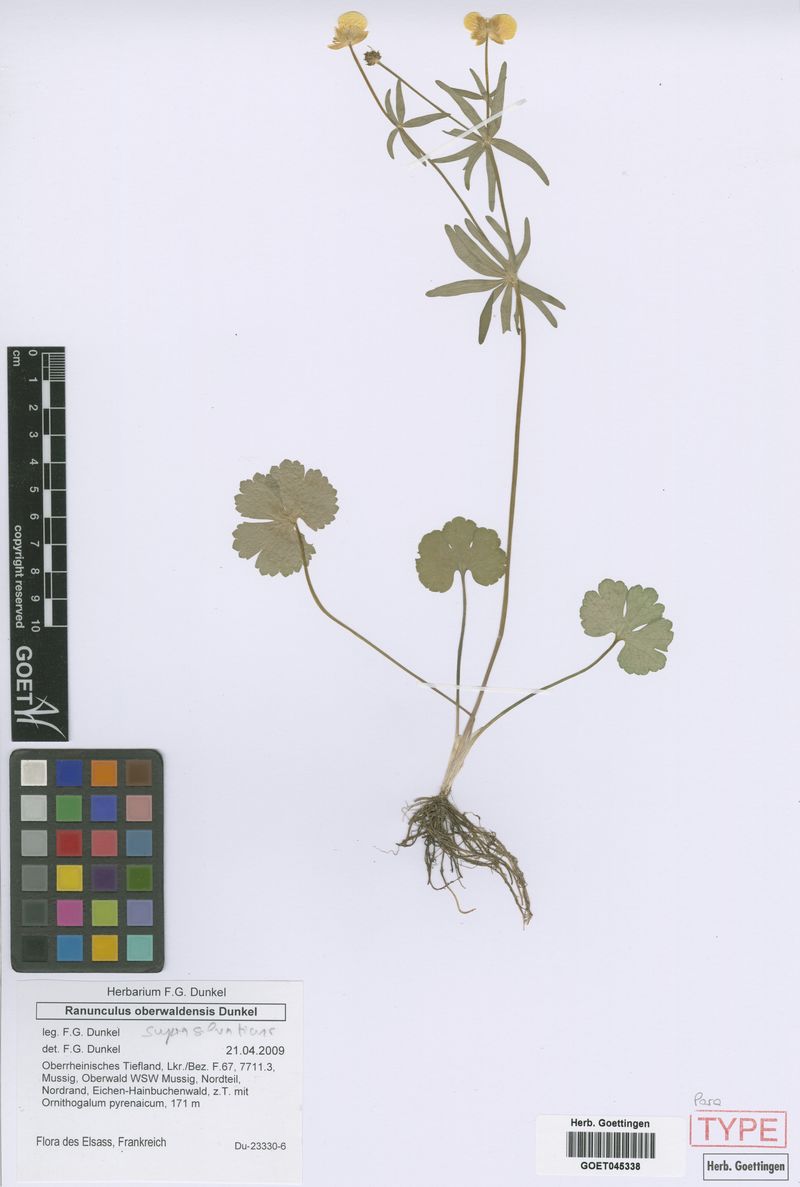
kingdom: Plantae
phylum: Tracheophyta
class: Magnoliopsida
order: Ranunculales
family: Ranunculaceae
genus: Ranunculus
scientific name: Ranunculus suprasilvaticus
